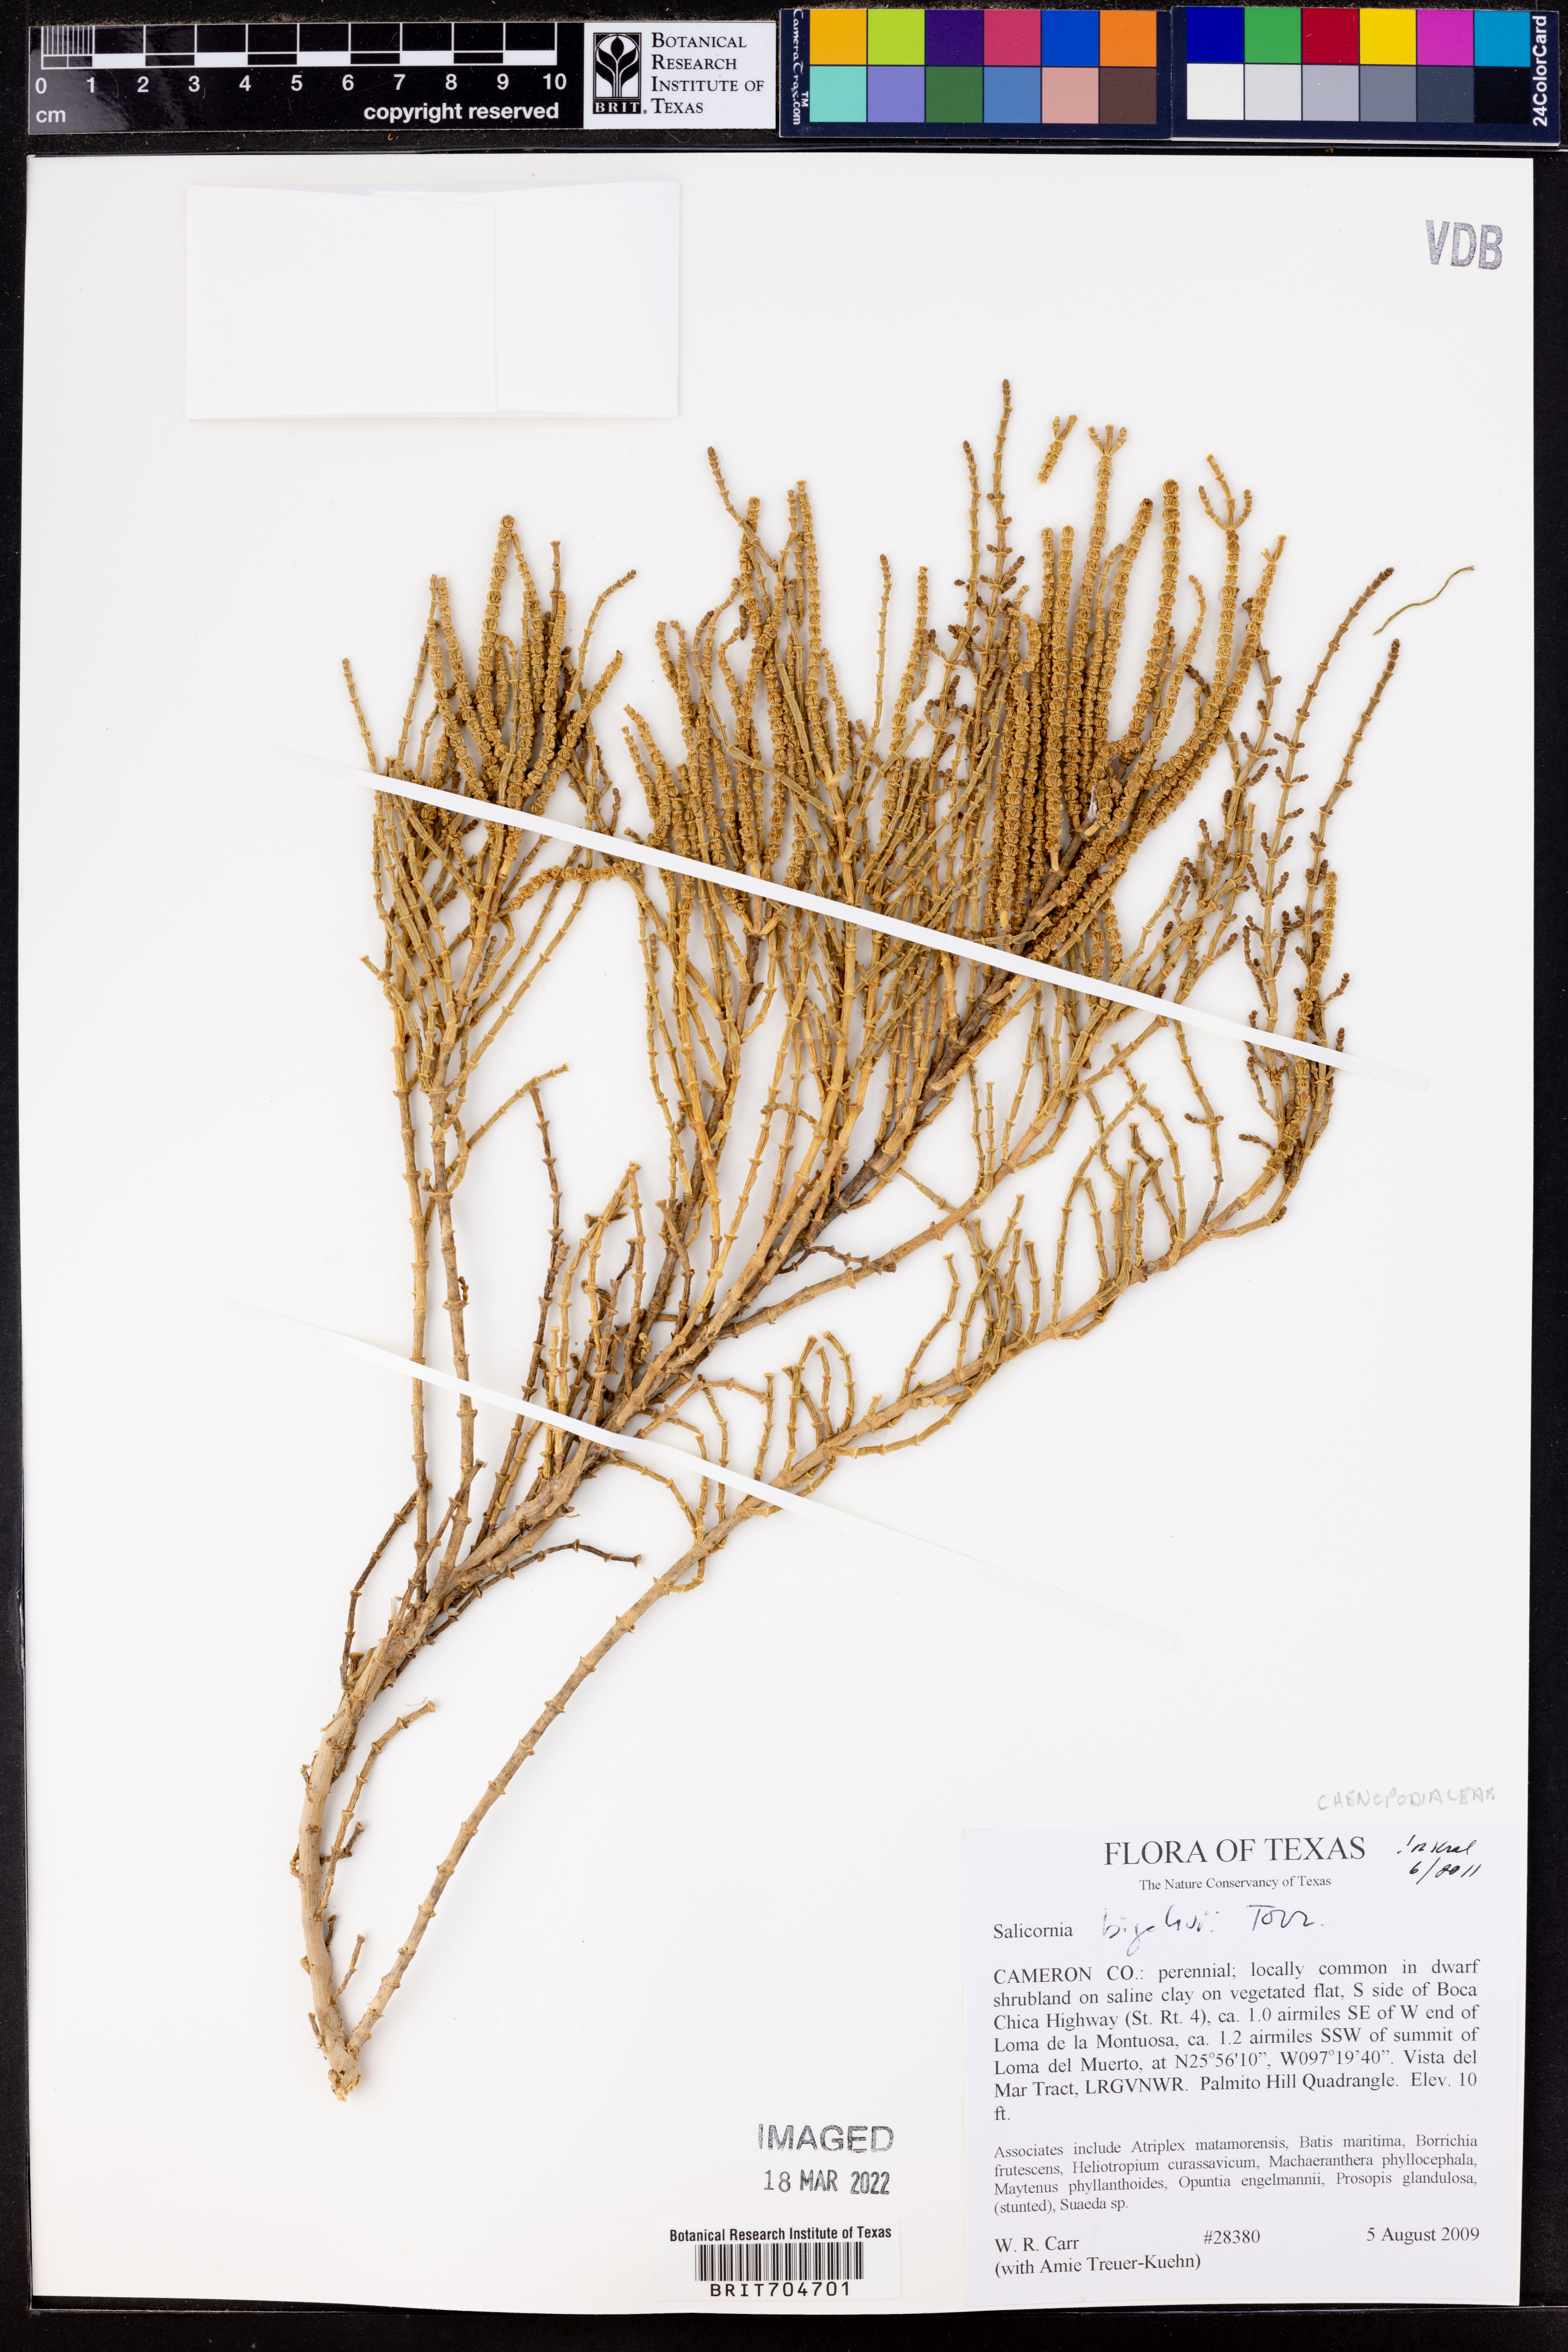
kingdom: Plantae
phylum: Tracheophyta
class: Magnoliopsida
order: Caryophyllales
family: Amaranthaceae
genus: Salicornia
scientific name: Salicornia bigelovii
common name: Dwarf glasswort
